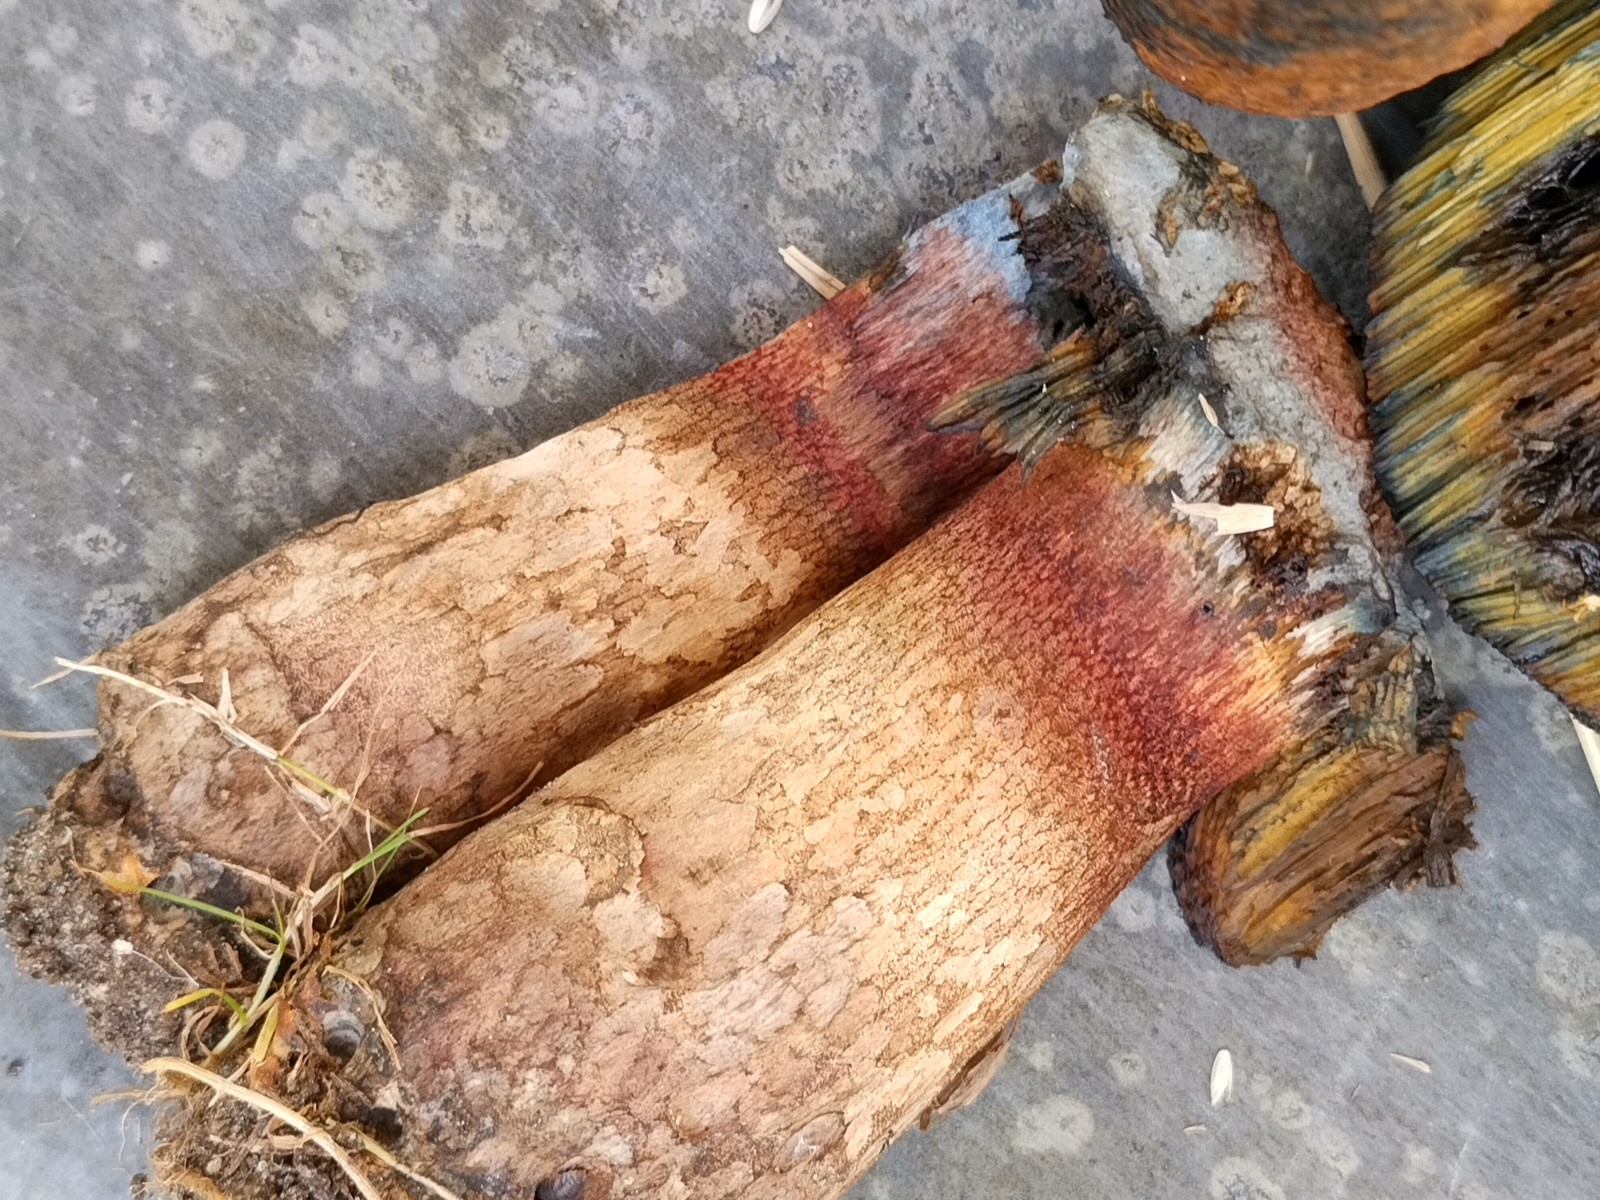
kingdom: Fungi
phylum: Basidiomycota
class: Agaricomycetes
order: Boletales
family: Boletaceae
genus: Suillellus
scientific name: Suillellus luridus
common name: netstokket indigorørhat
